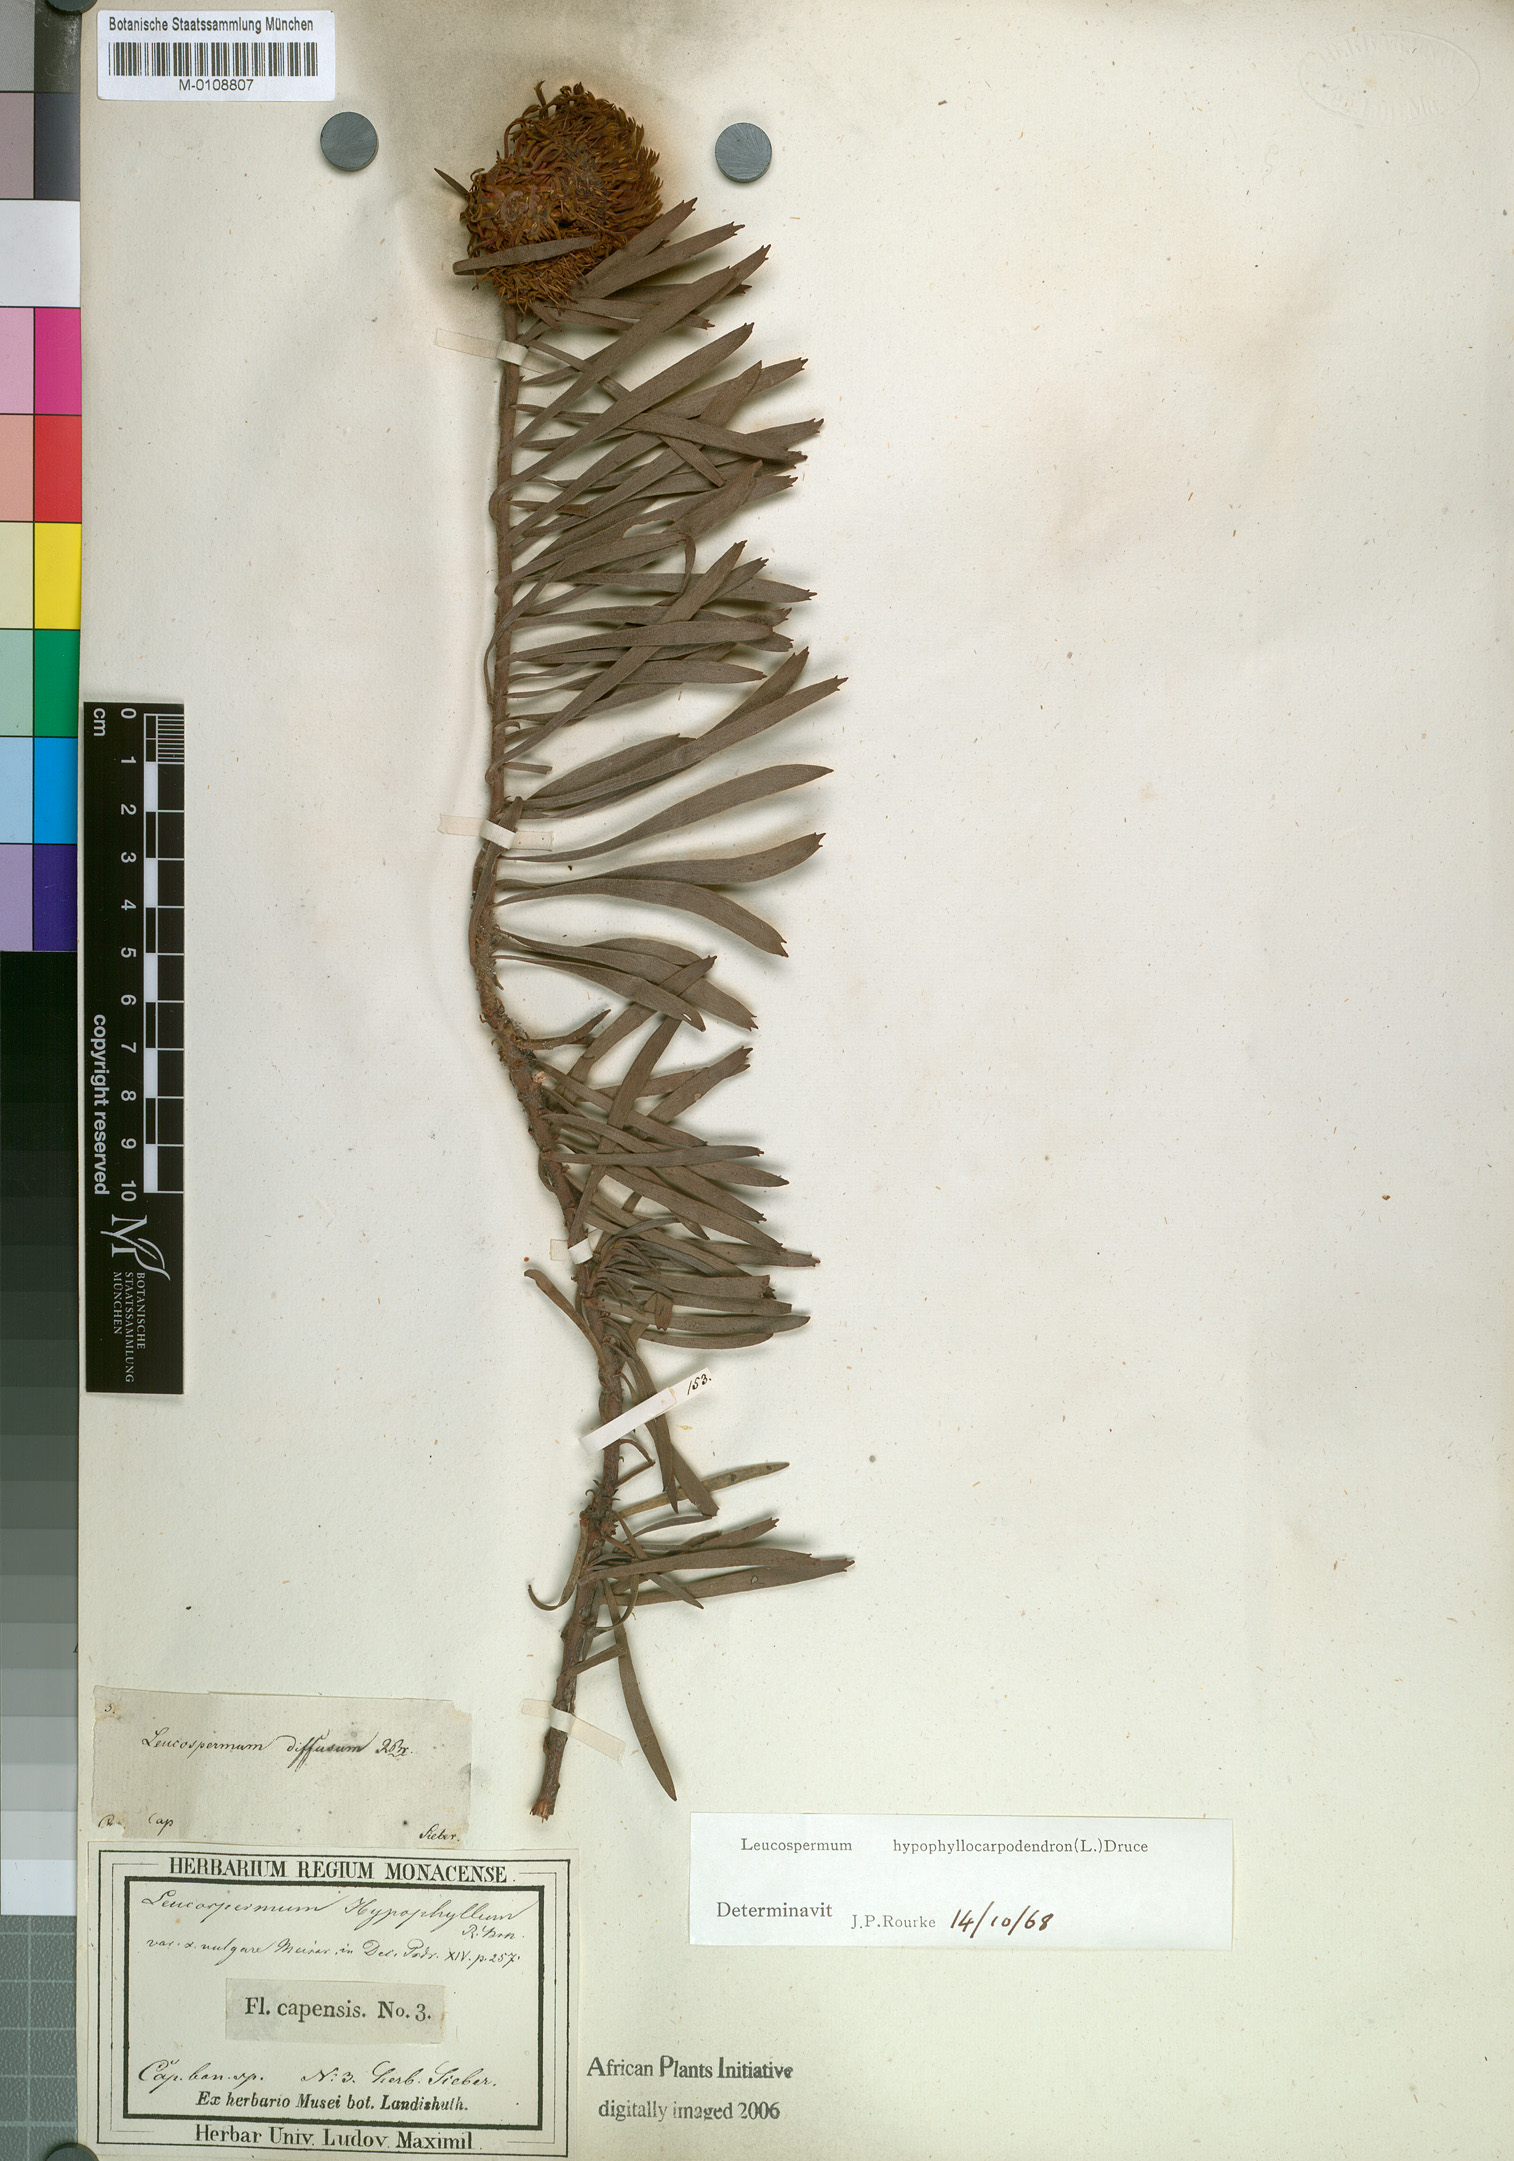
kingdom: Plantae
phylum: Tracheophyta
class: Magnoliopsida
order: Proteales
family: Proteaceae
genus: Leucospermum
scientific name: Leucospermum hypophyllocarpodendron
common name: Snakestem pincushion
